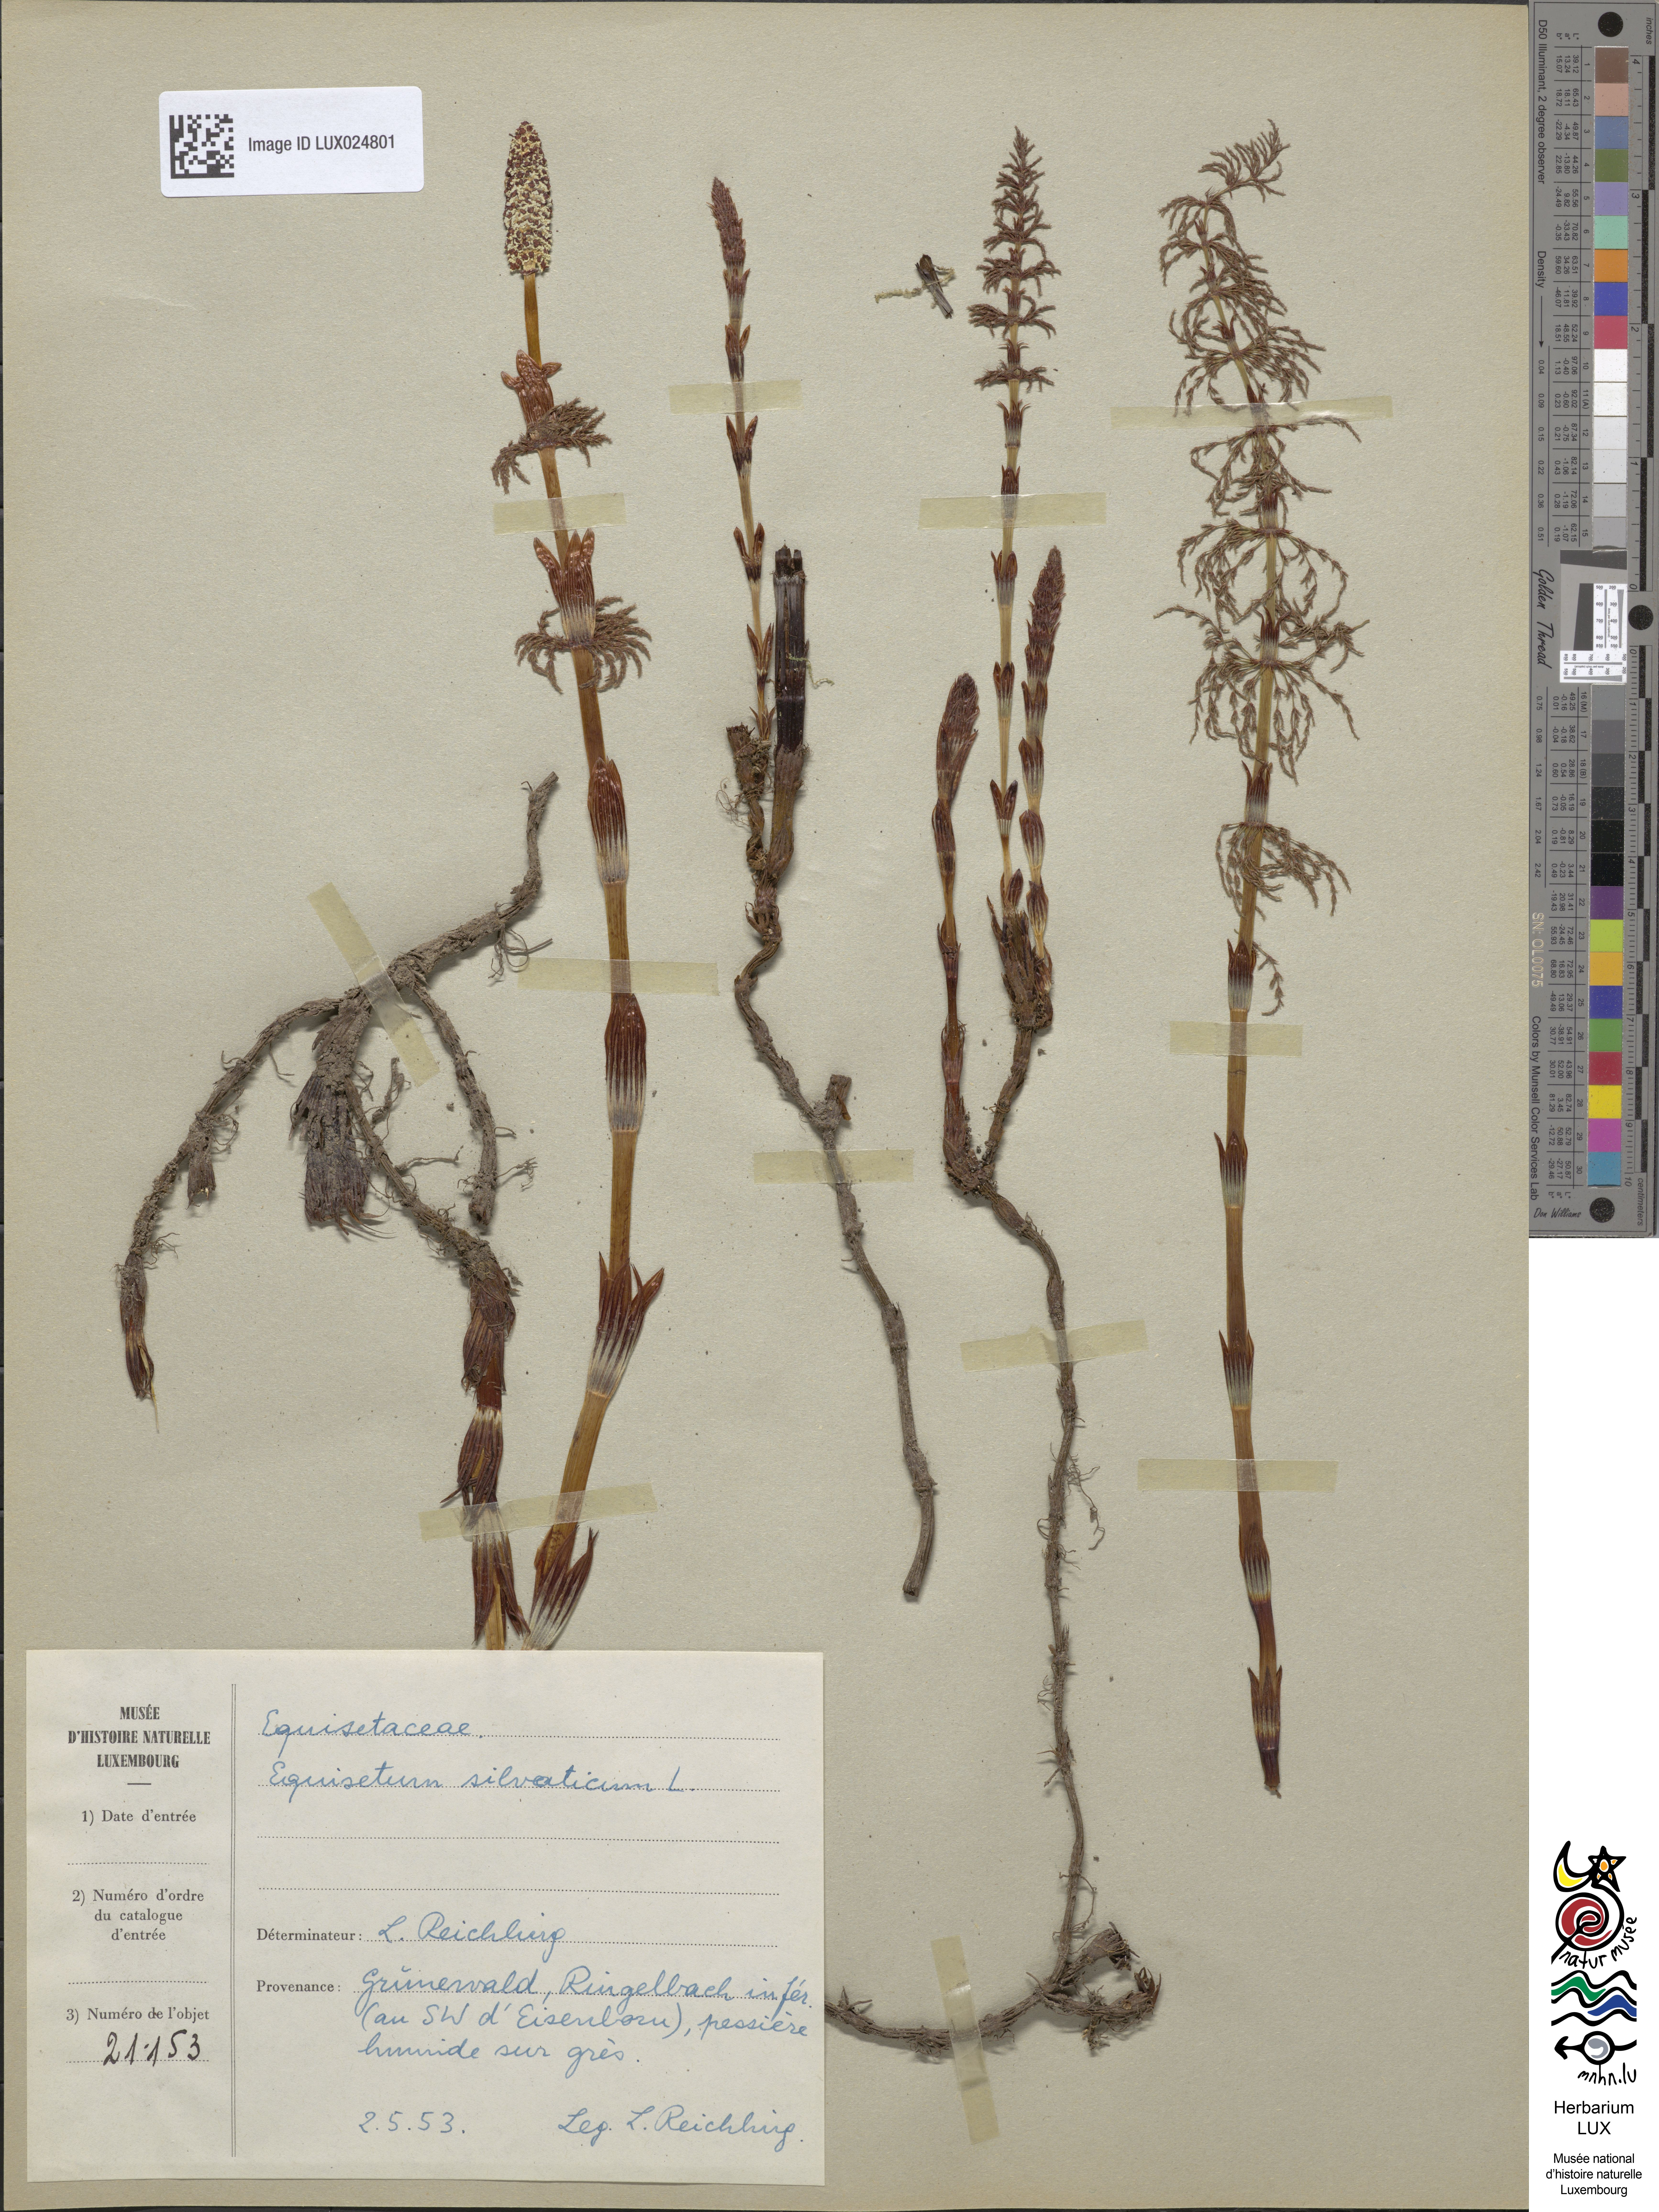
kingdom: Plantae
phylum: Tracheophyta
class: Polypodiopsida
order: Equisetales
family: Equisetaceae
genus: Equisetum
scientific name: Equisetum sylvaticum
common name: Wood horsetail
